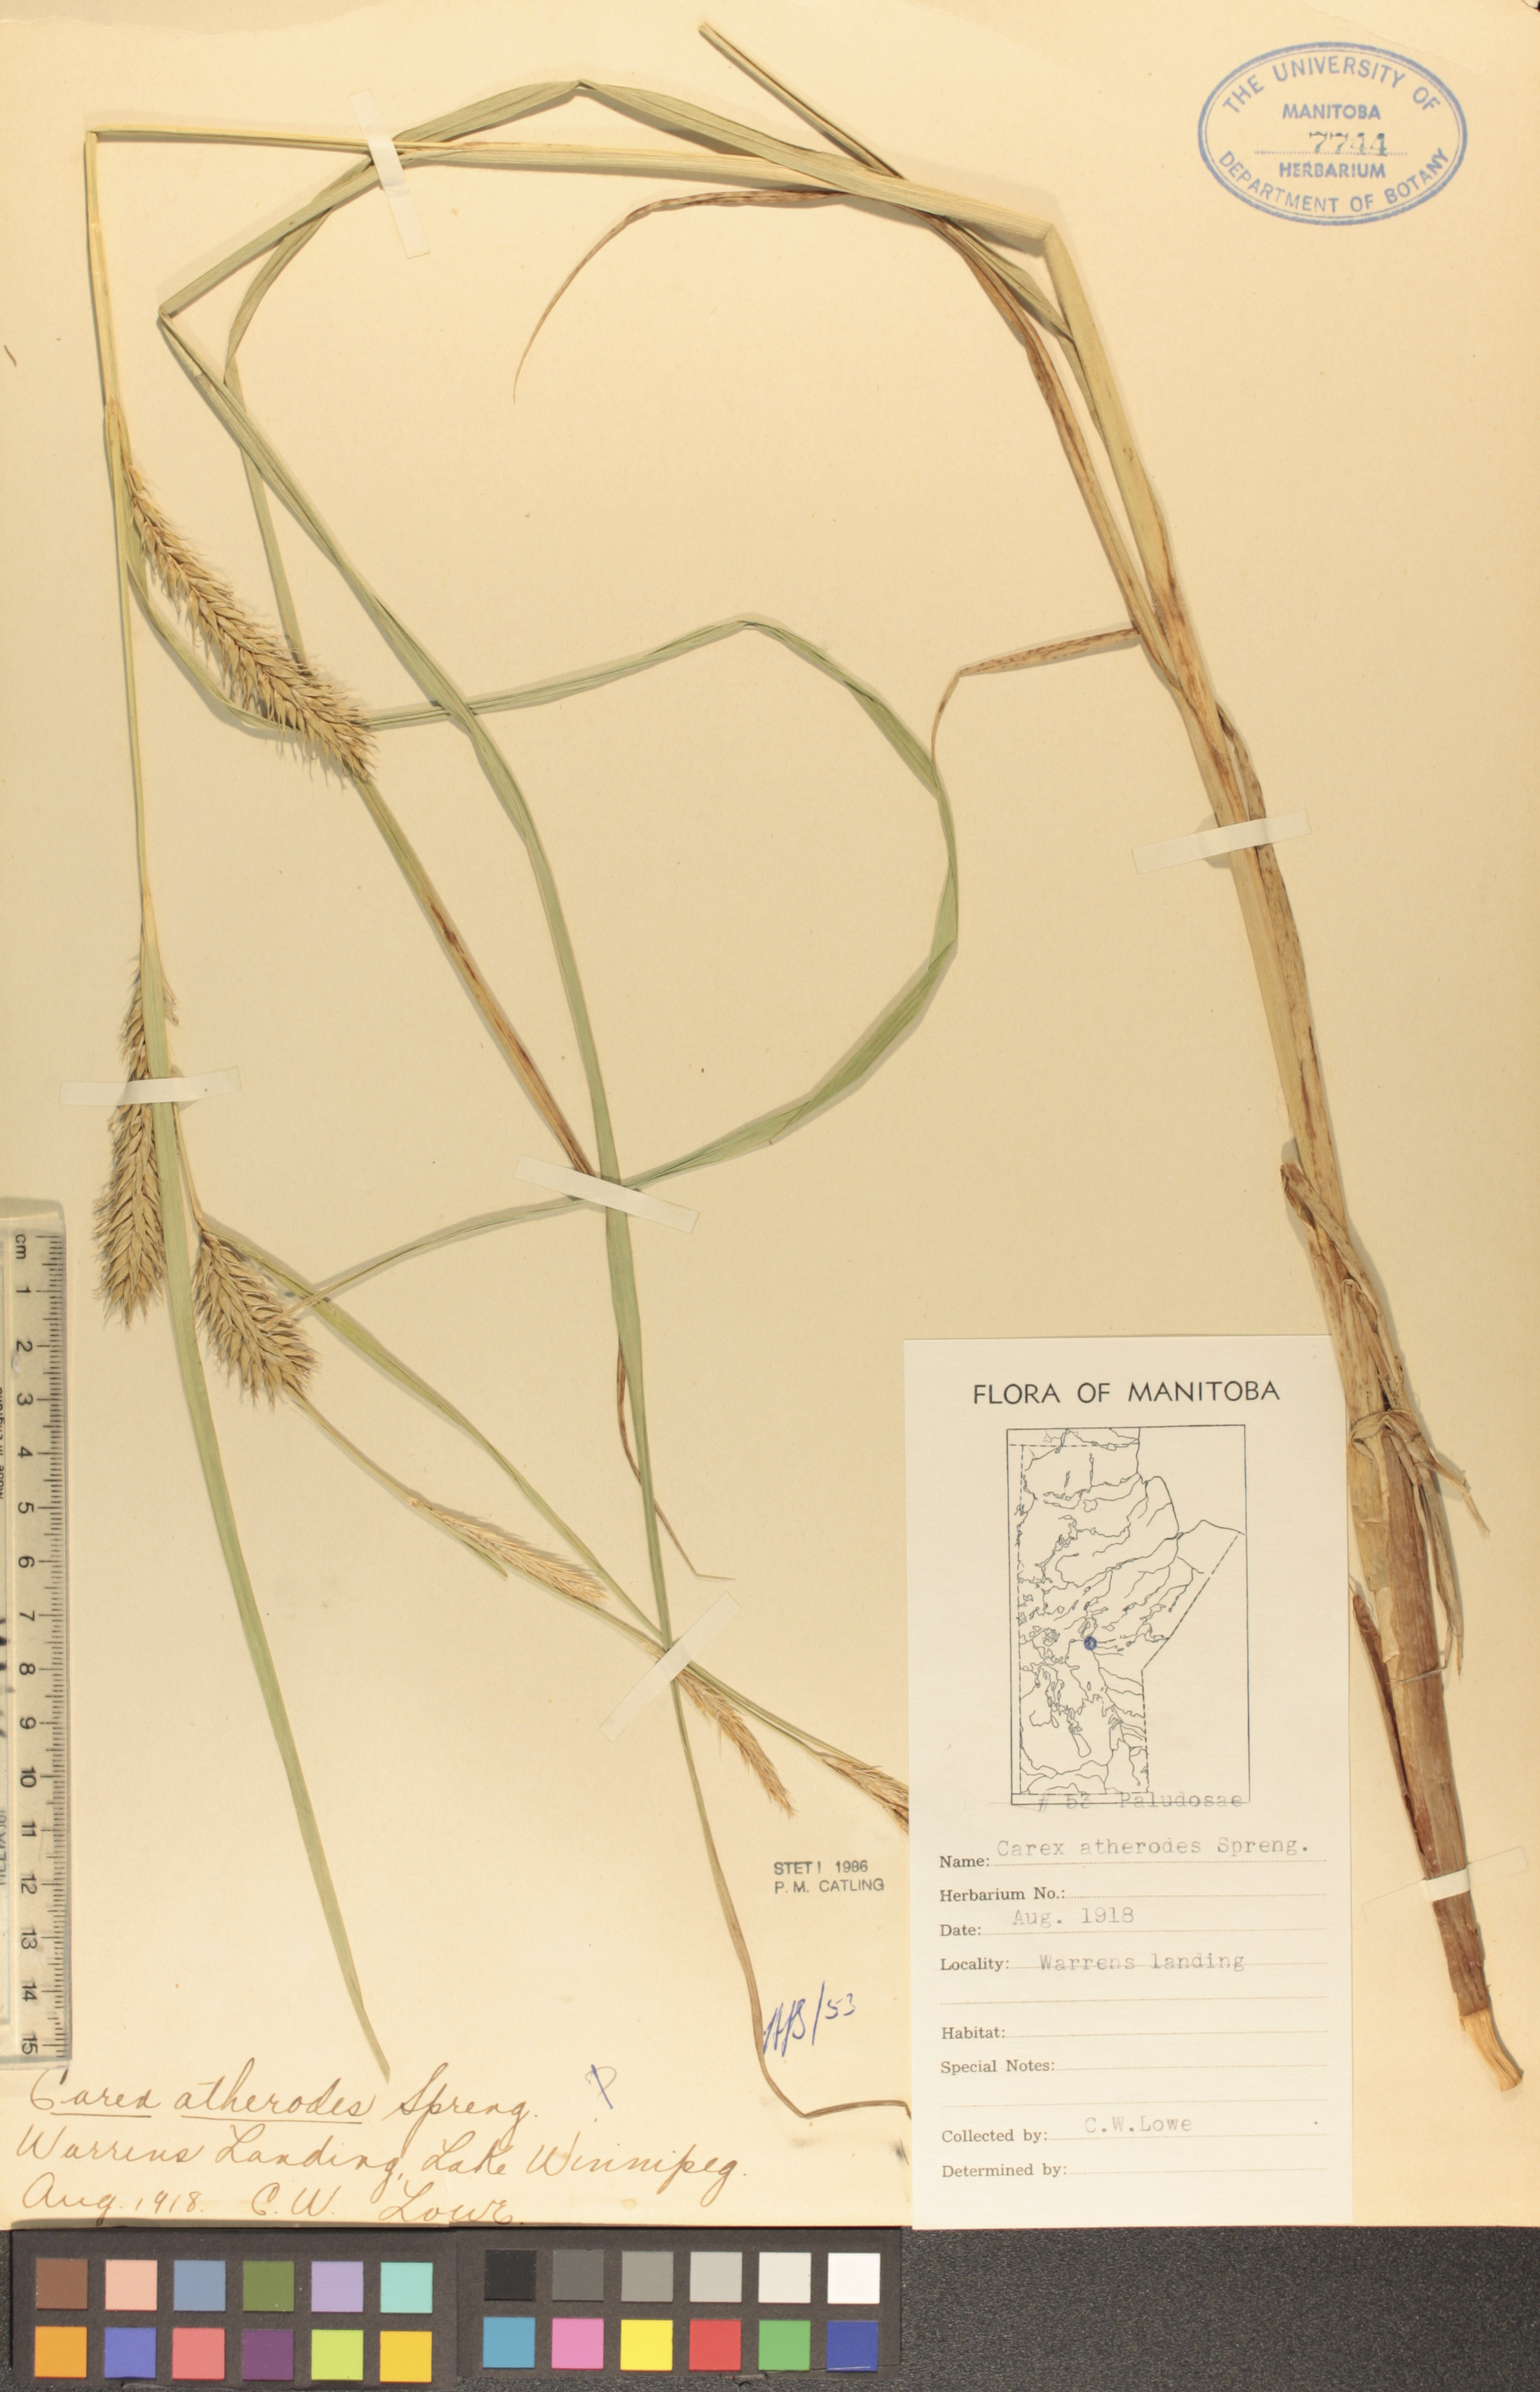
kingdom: Plantae
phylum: Tracheophyta
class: Liliopsida
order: Poales
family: Cyperaceae
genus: Carex
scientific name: Carex atherodes
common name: Wheat sedge
